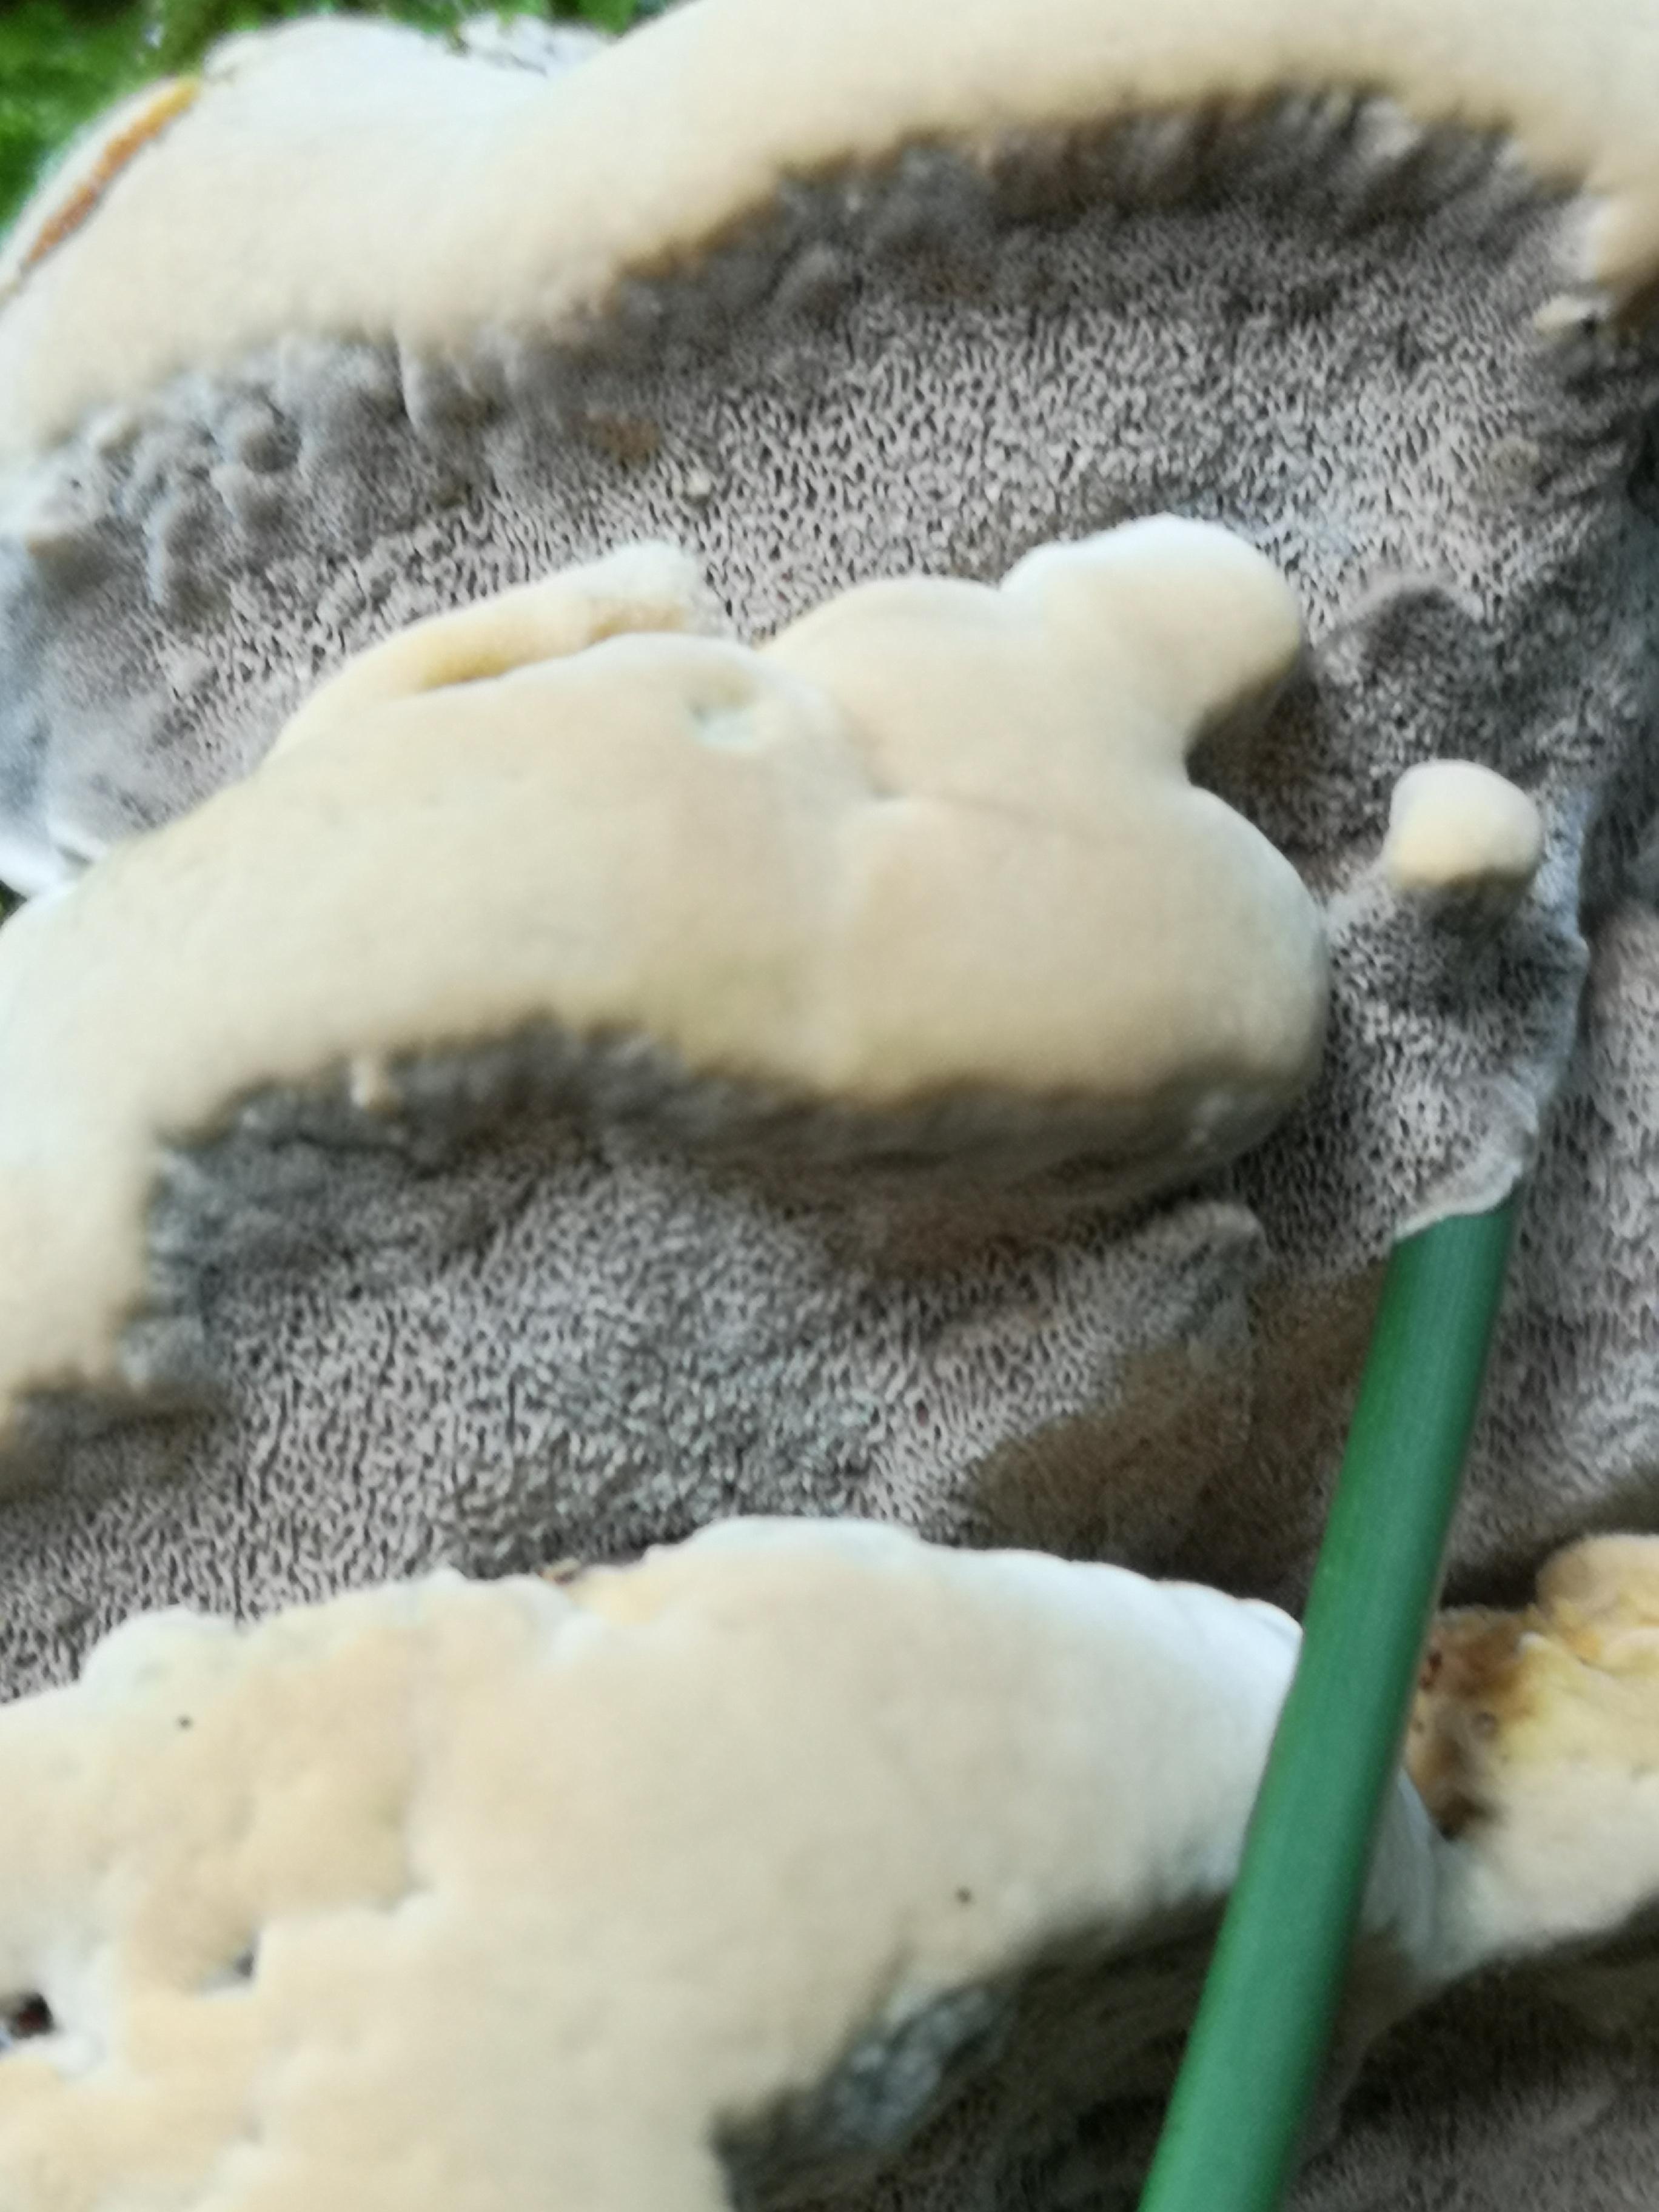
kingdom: Fungi
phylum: Basidiomycota
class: Agaricomycetes
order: Hymenochaetales
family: Hymenochaetaceae
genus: Xanthoporia
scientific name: Xanthoporia radiata
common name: elle-spejlporesvamp
